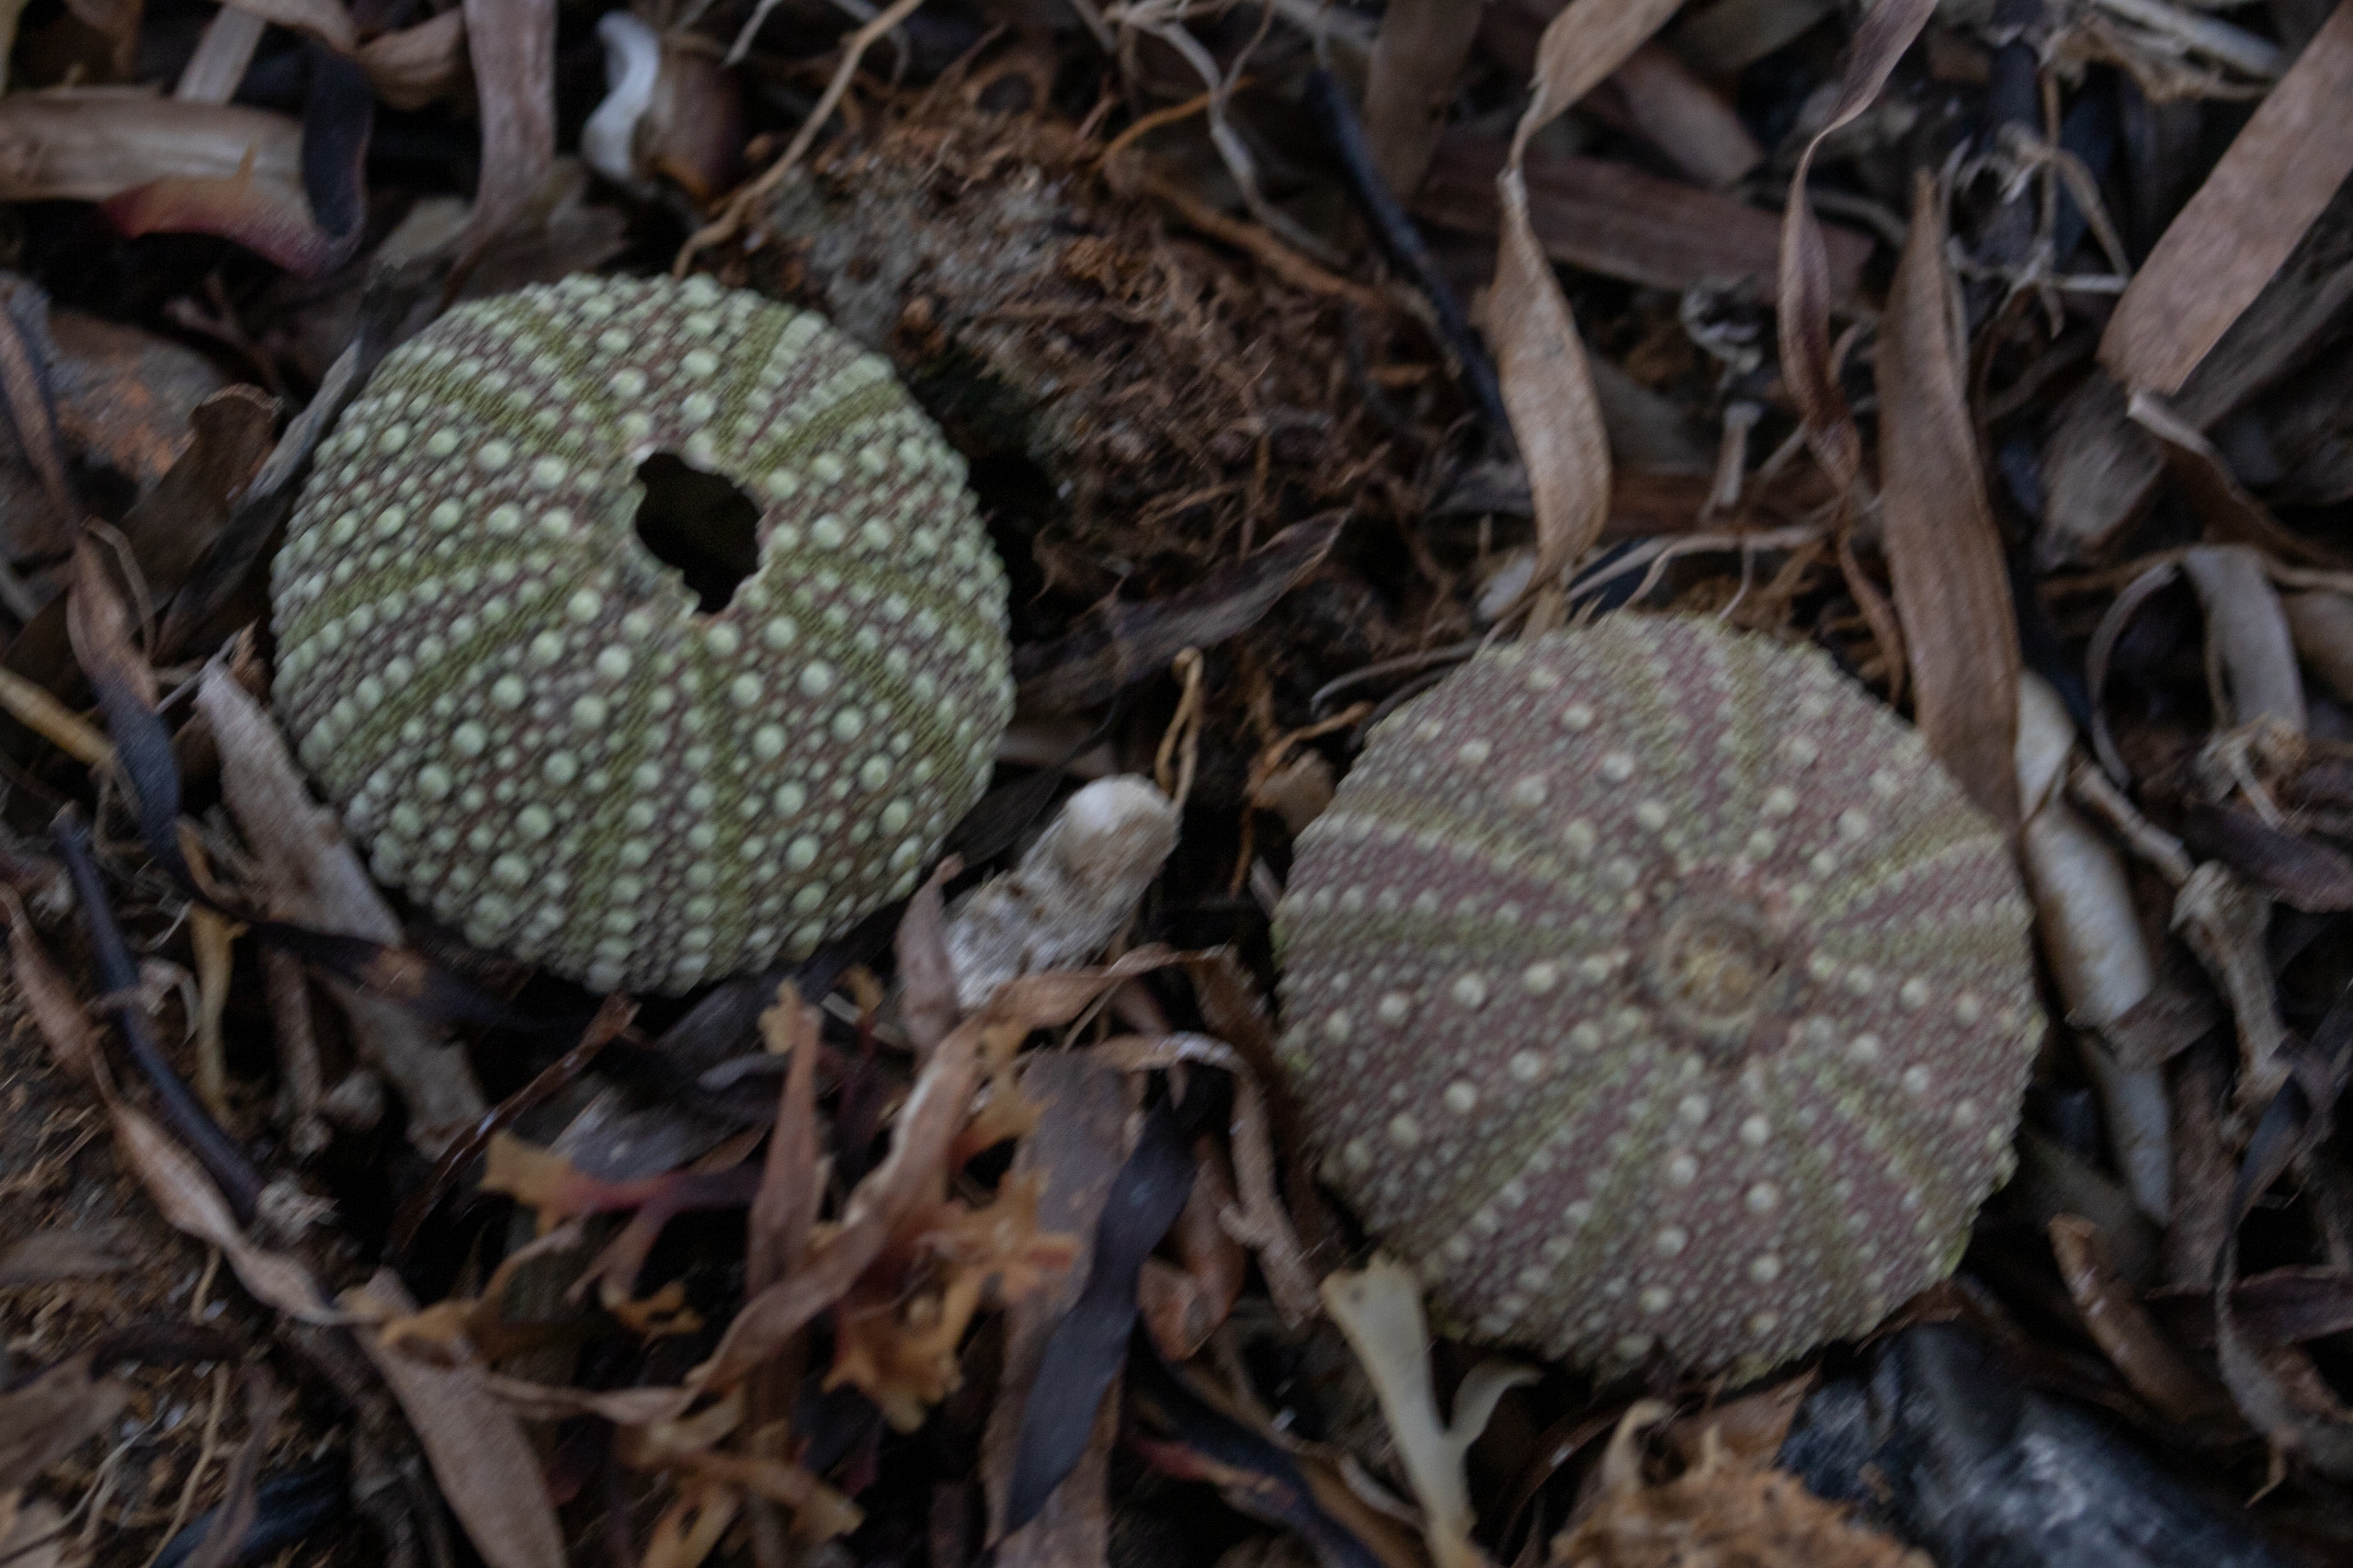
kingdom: Animalia
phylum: Echinodermata
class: Echinoidea
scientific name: Echinoidea
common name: Søpindsvin
